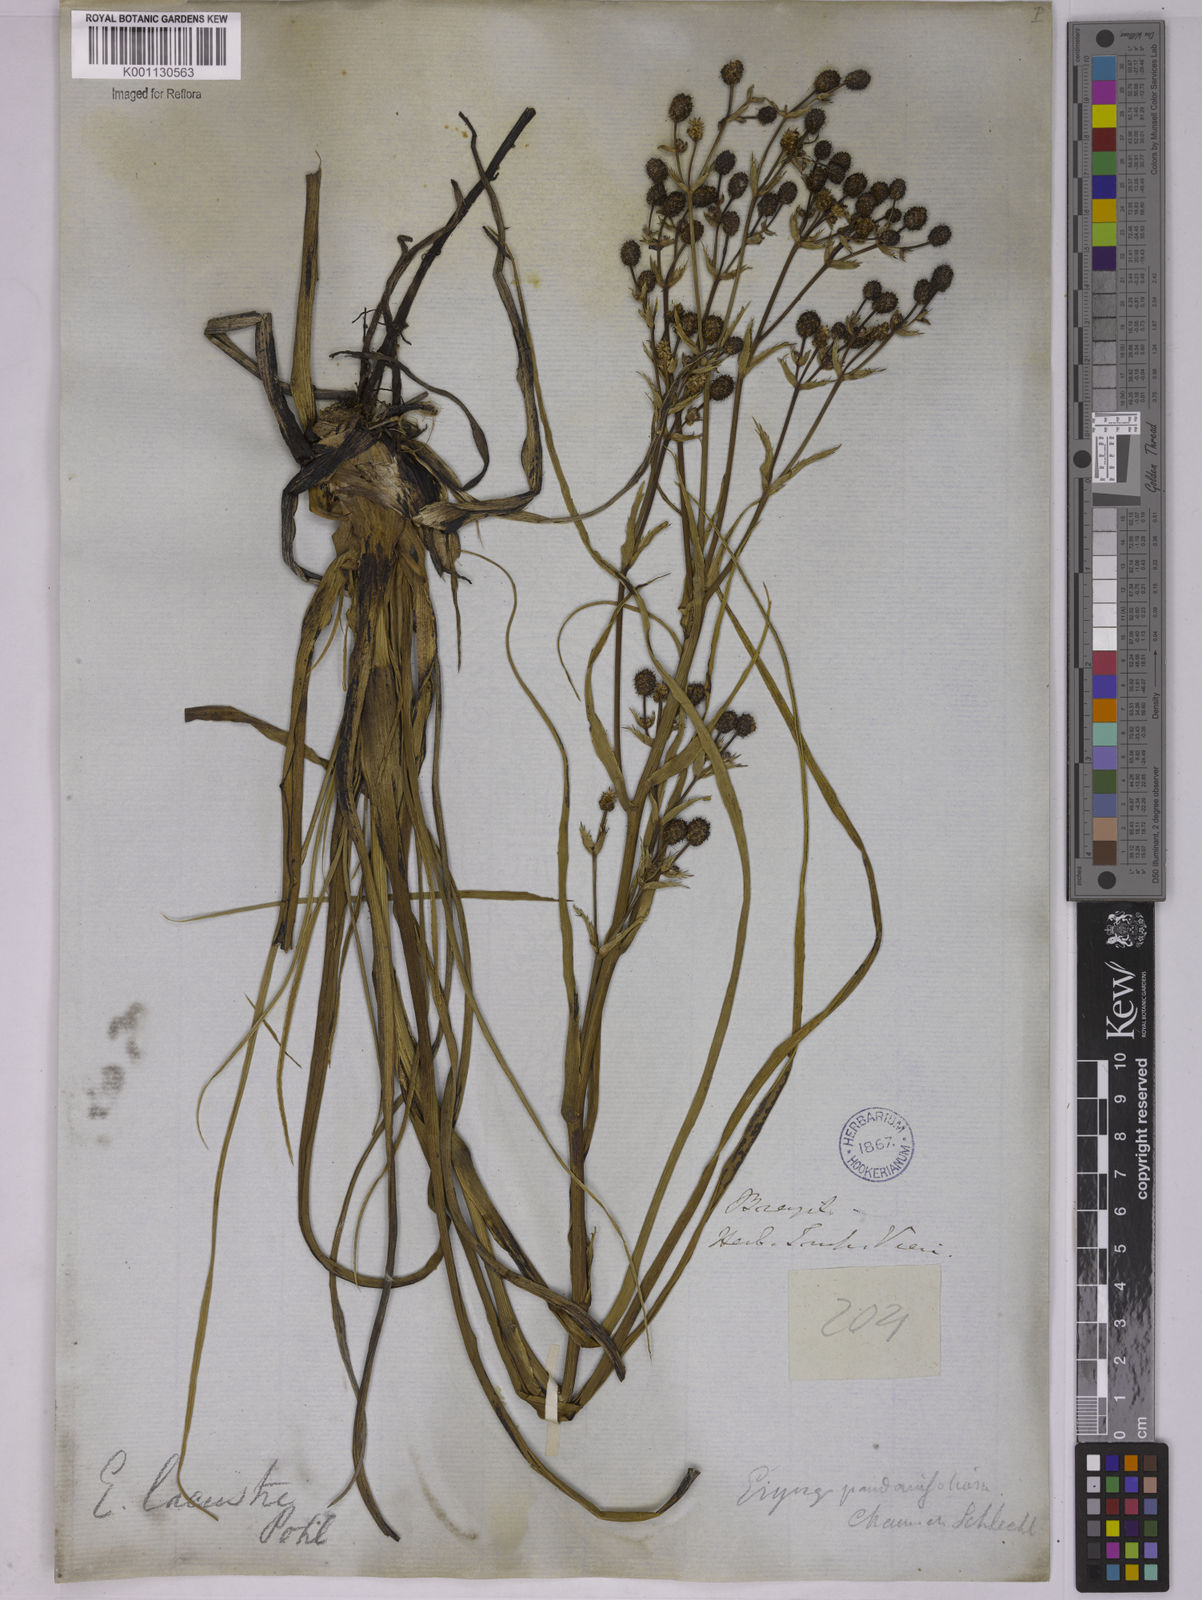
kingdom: Plantae
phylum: Tracheophyta
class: Magnoliopsida
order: Apiales
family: Apiaceae
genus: Eryngium
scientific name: Eryngium lacustre
